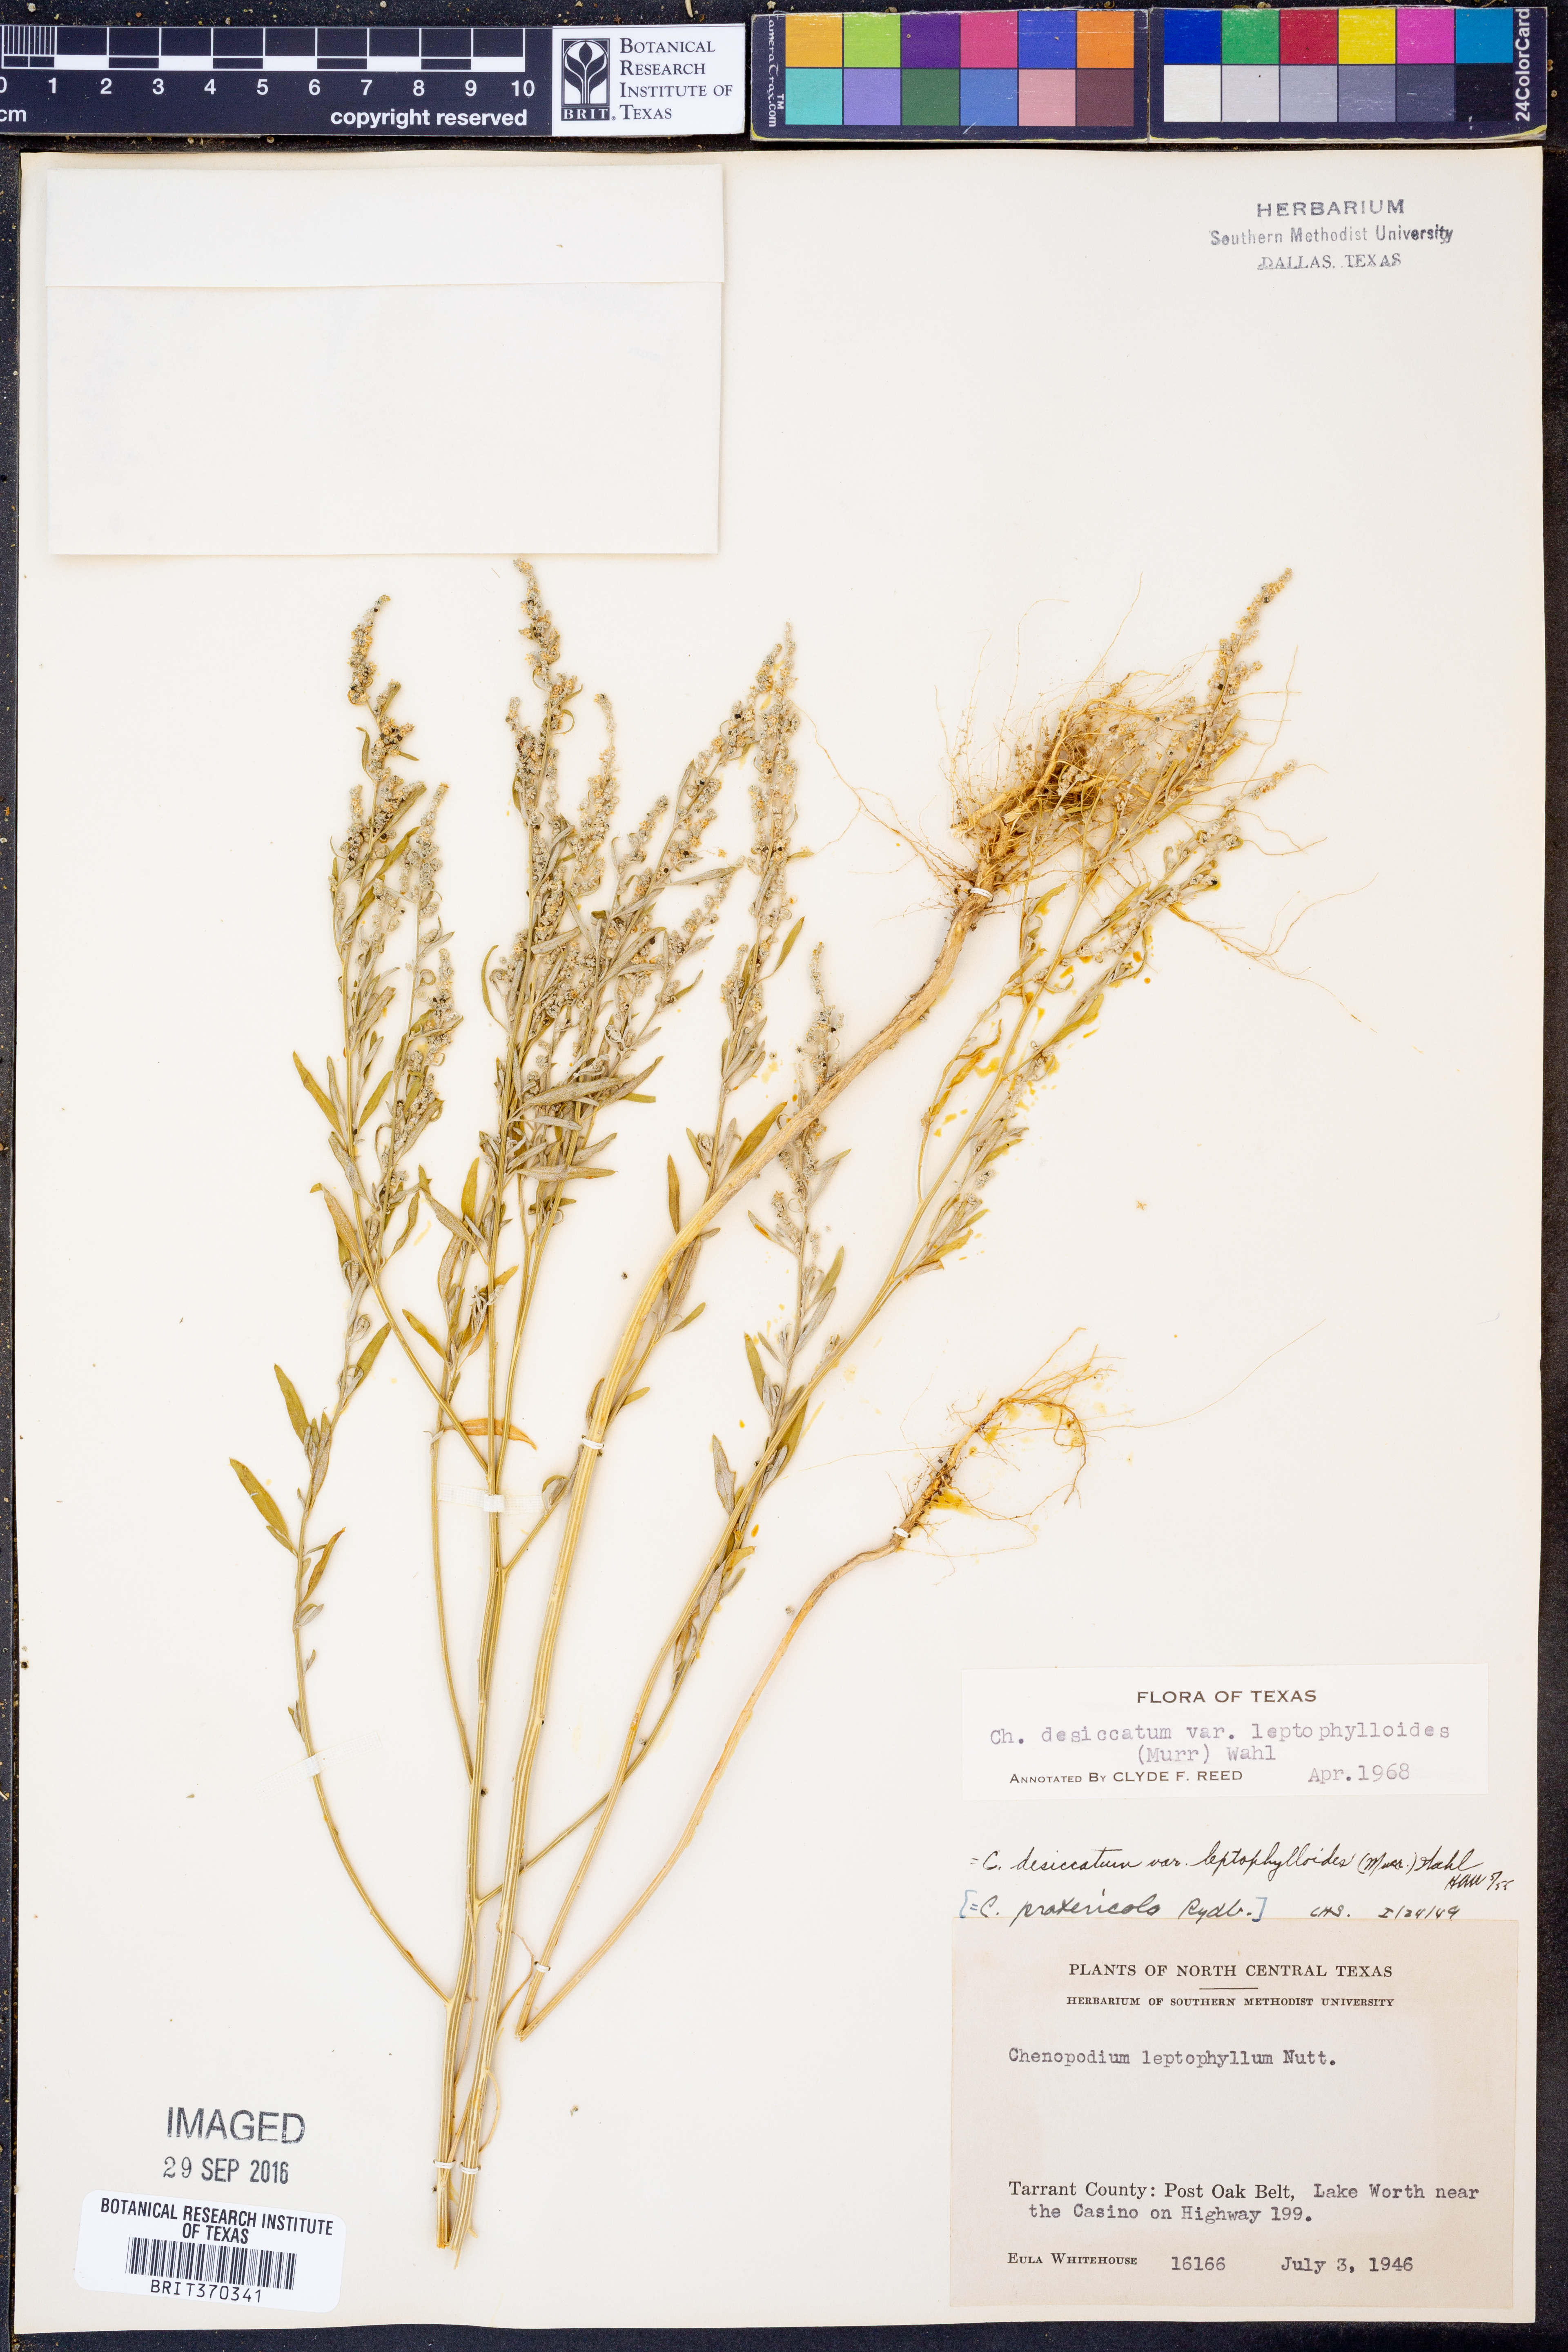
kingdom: Plantae
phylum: Tracheophyta
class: Magnoliopsida
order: Caryophyllales
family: Amaranthaceae
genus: Chenopodium
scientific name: Chenopodium pratericola
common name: Desert goosefoot
